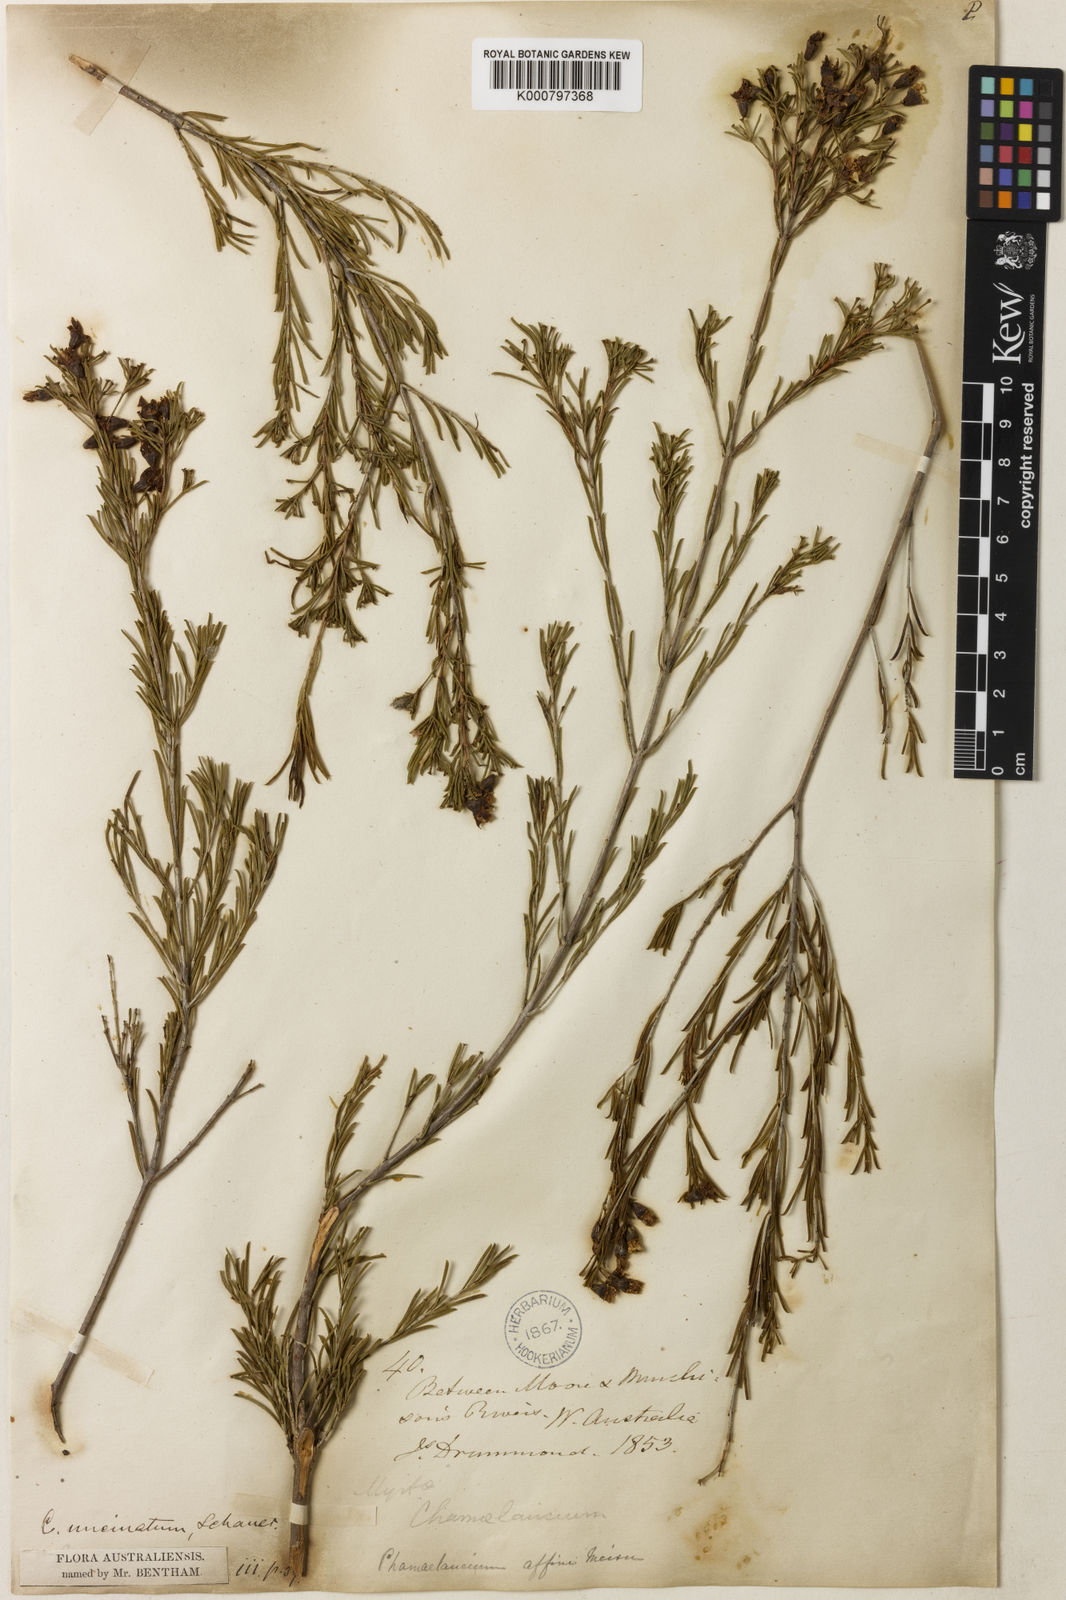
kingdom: Plantae
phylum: Tracheophyta
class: Magnoliopsida
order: Myrtales
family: Myrtaceae
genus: Chamelaucium
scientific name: Chamelaucium uncinatum
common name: Geraldton wax
